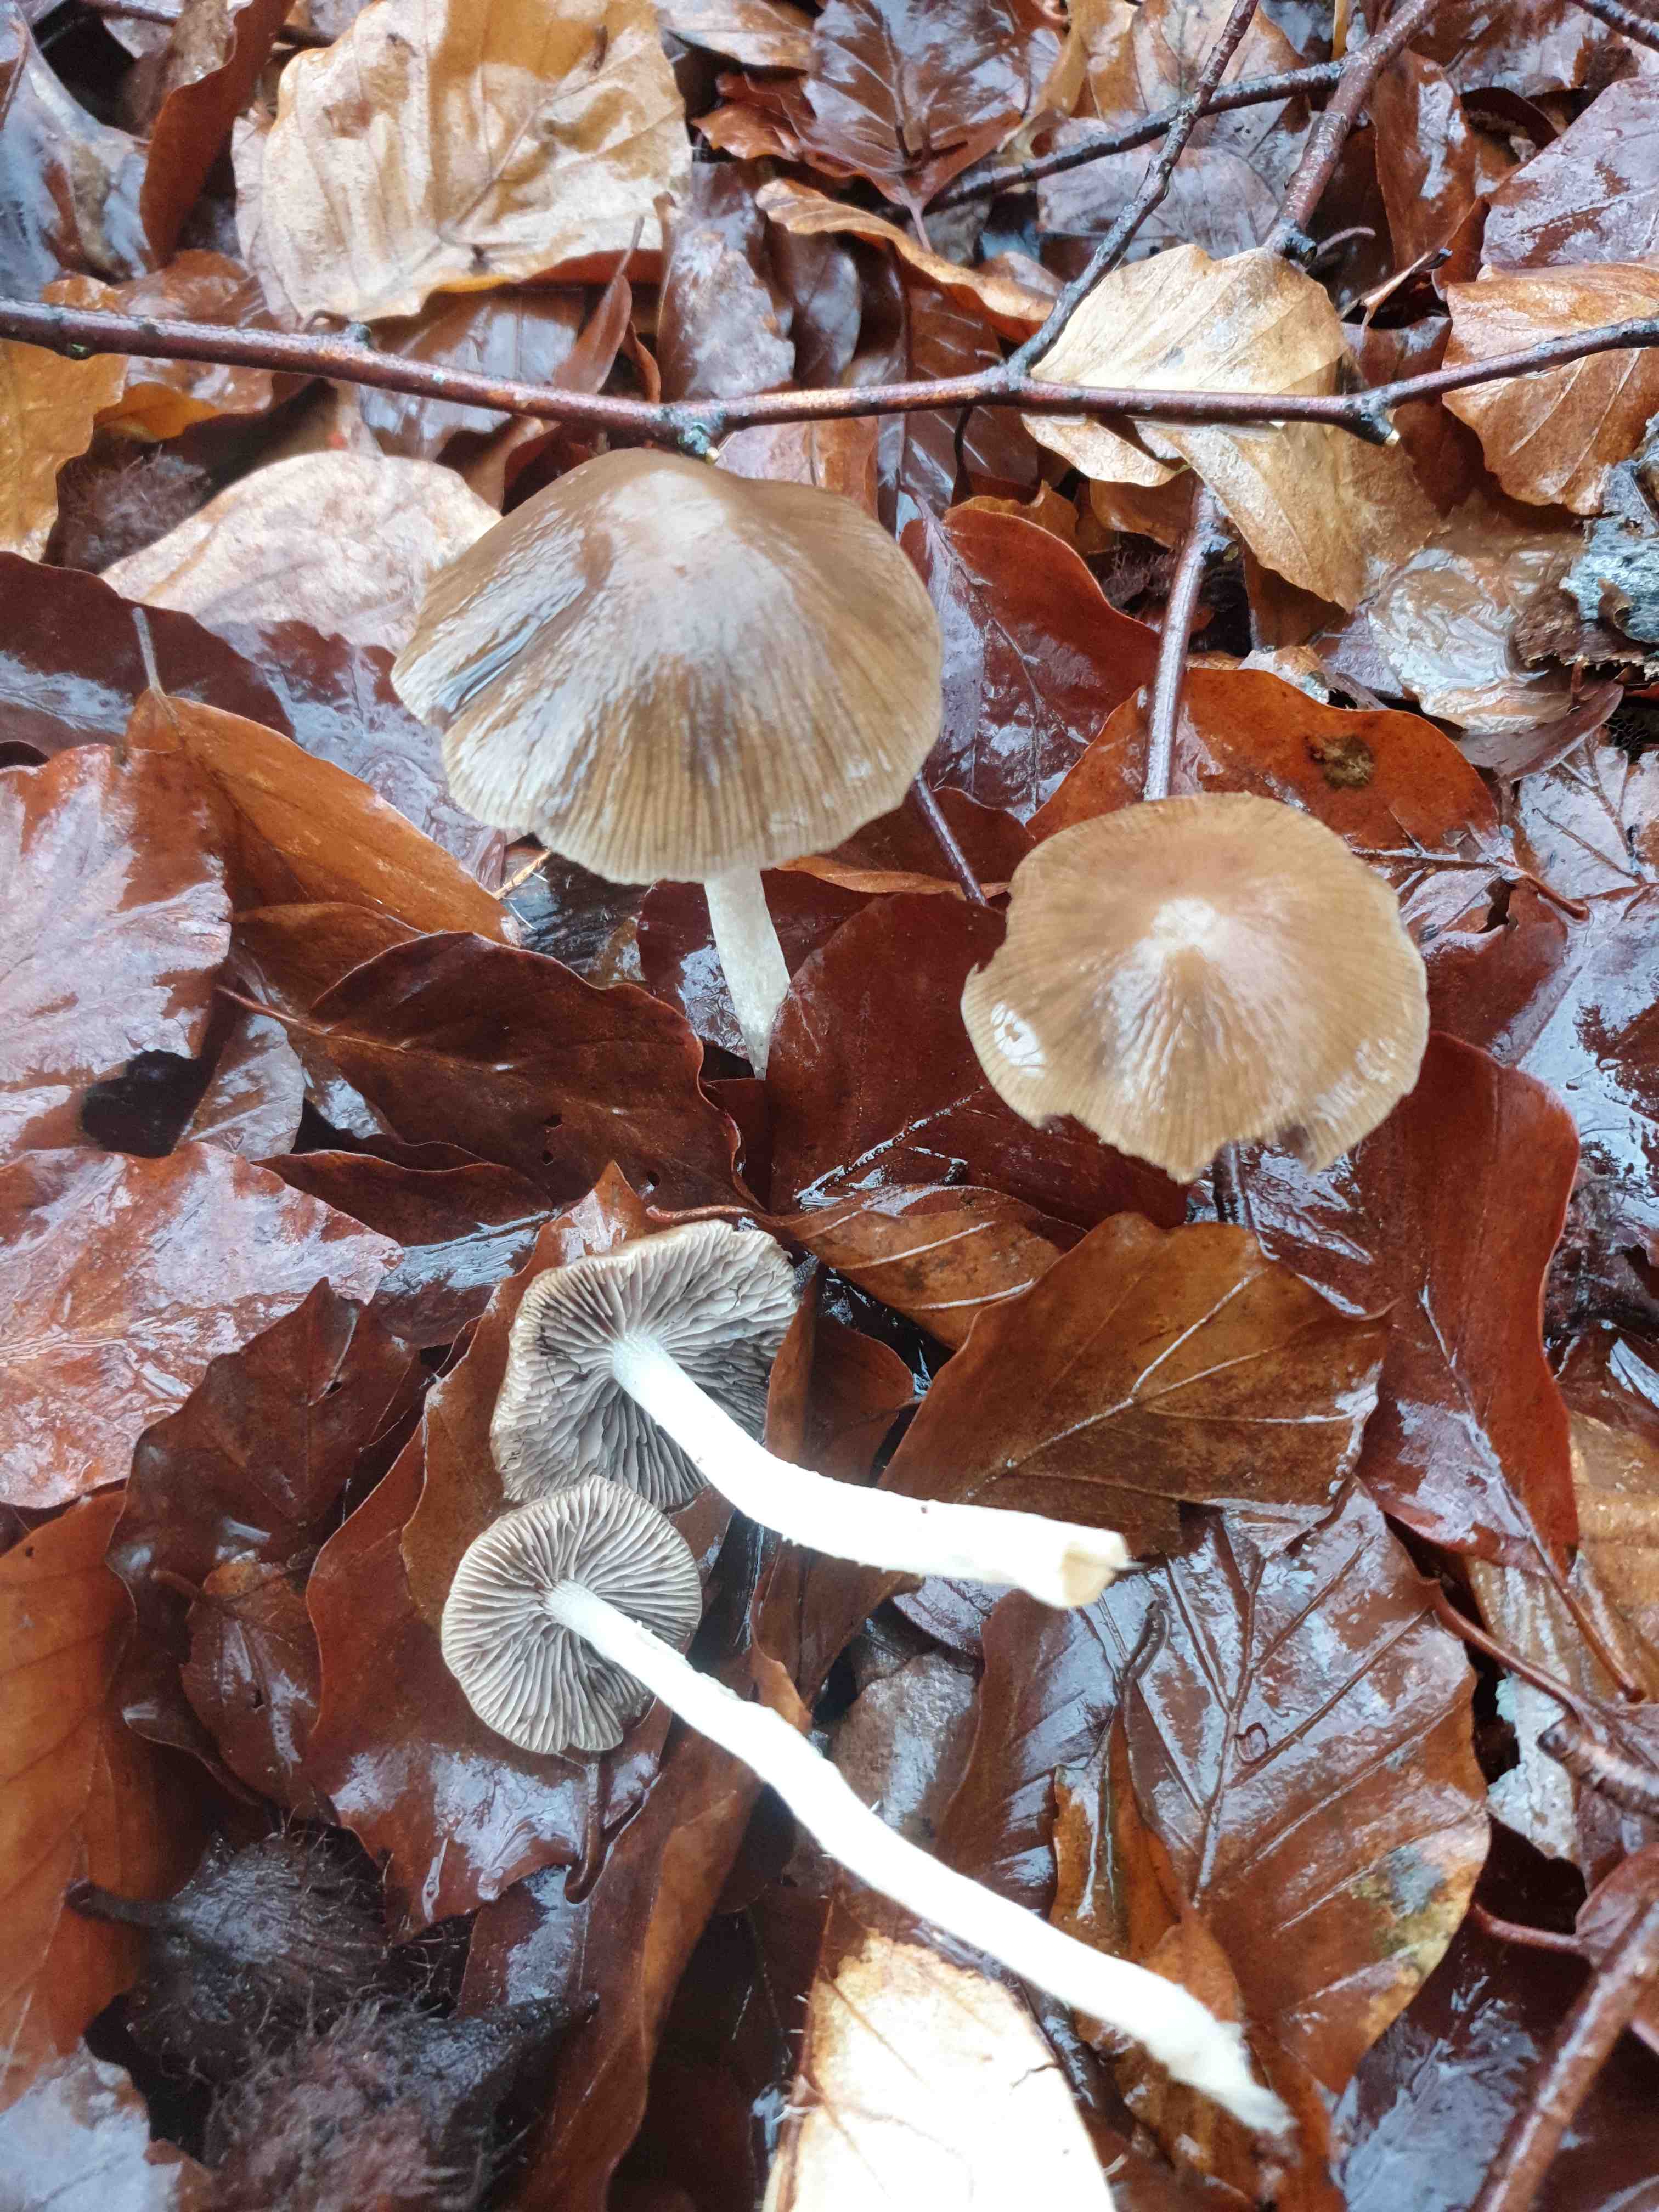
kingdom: Fungi
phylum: Basidiomycota
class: Agaricomycetes
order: Agaricales
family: Psathyrellaceae
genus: Psathyrella
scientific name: Psathyrella
